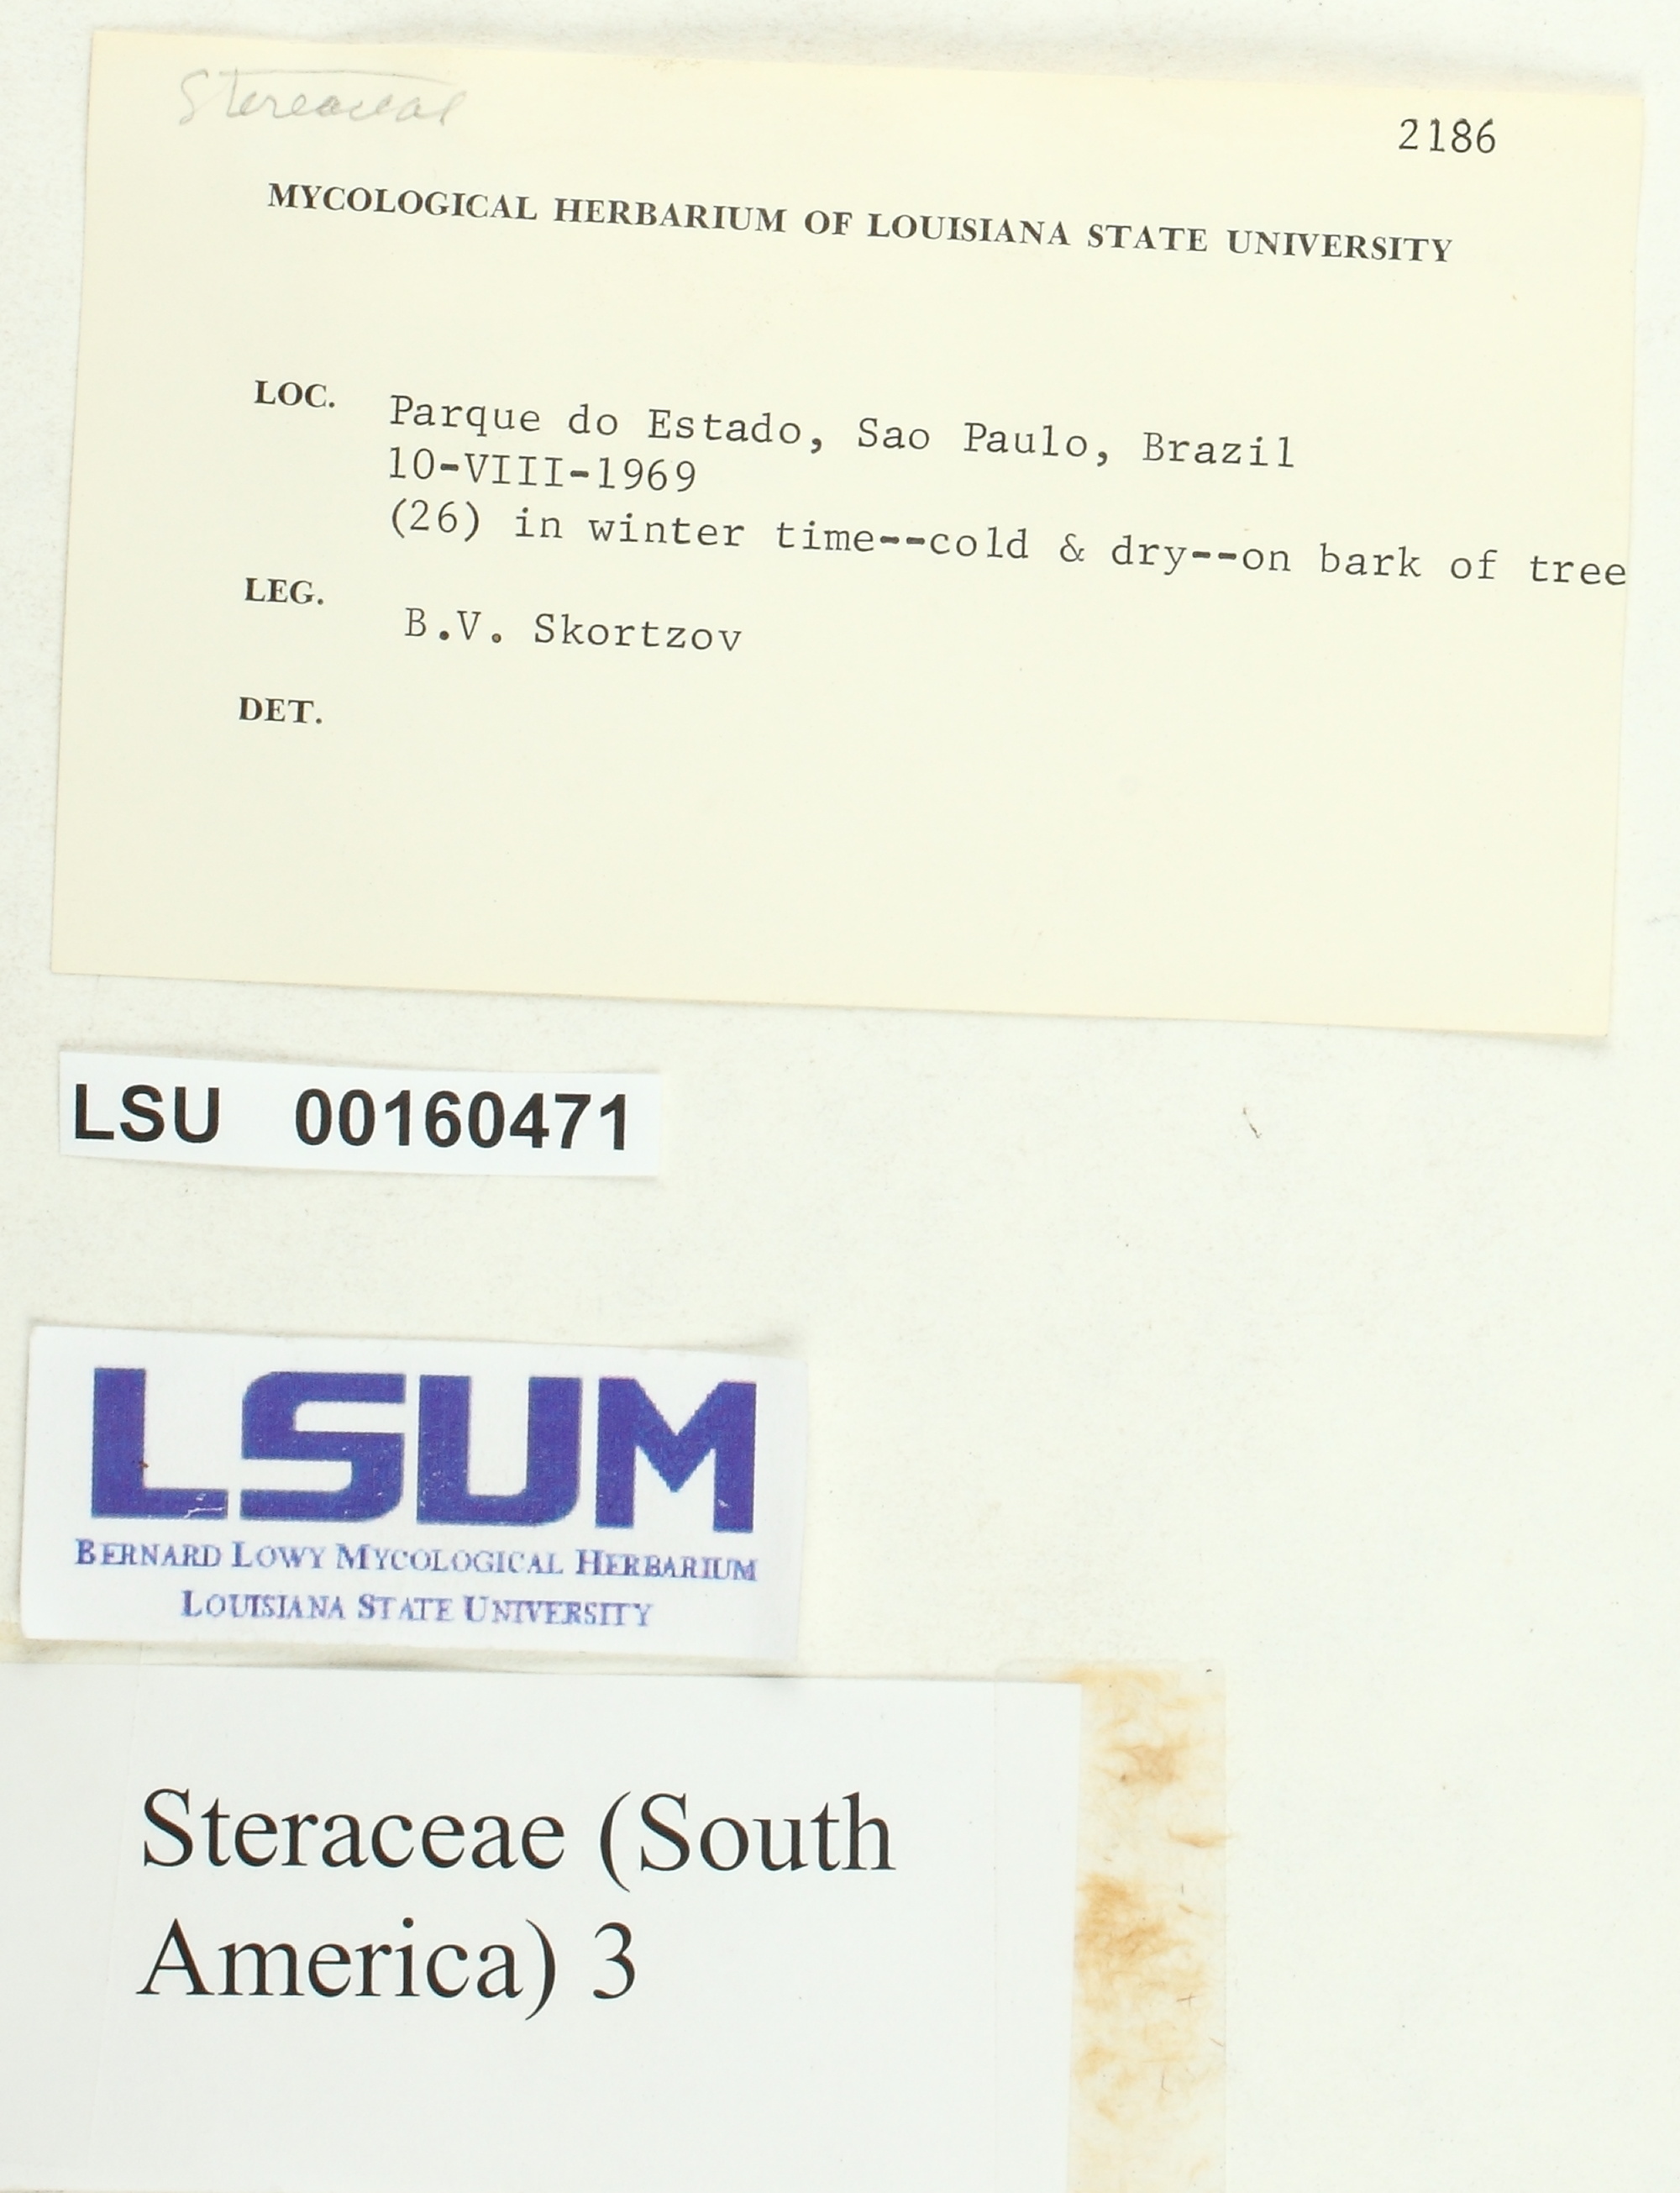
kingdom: Fungi
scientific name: Fungi
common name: Fungi
